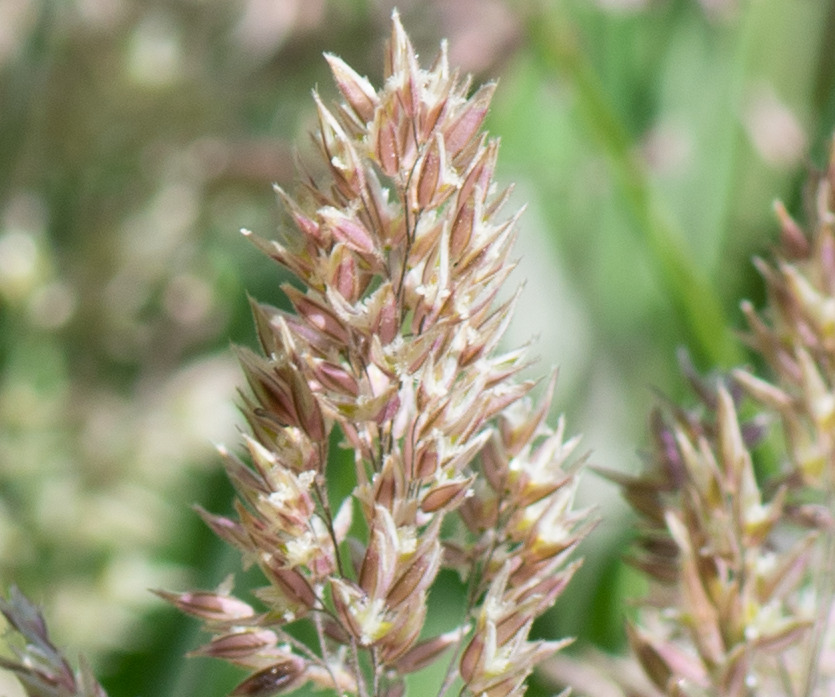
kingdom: Plantae
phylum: Tracheophyta
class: Liliopsida
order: Poales
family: Poaceae
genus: Holcus
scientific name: Holcus lanatus
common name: Fløjlsgræs
